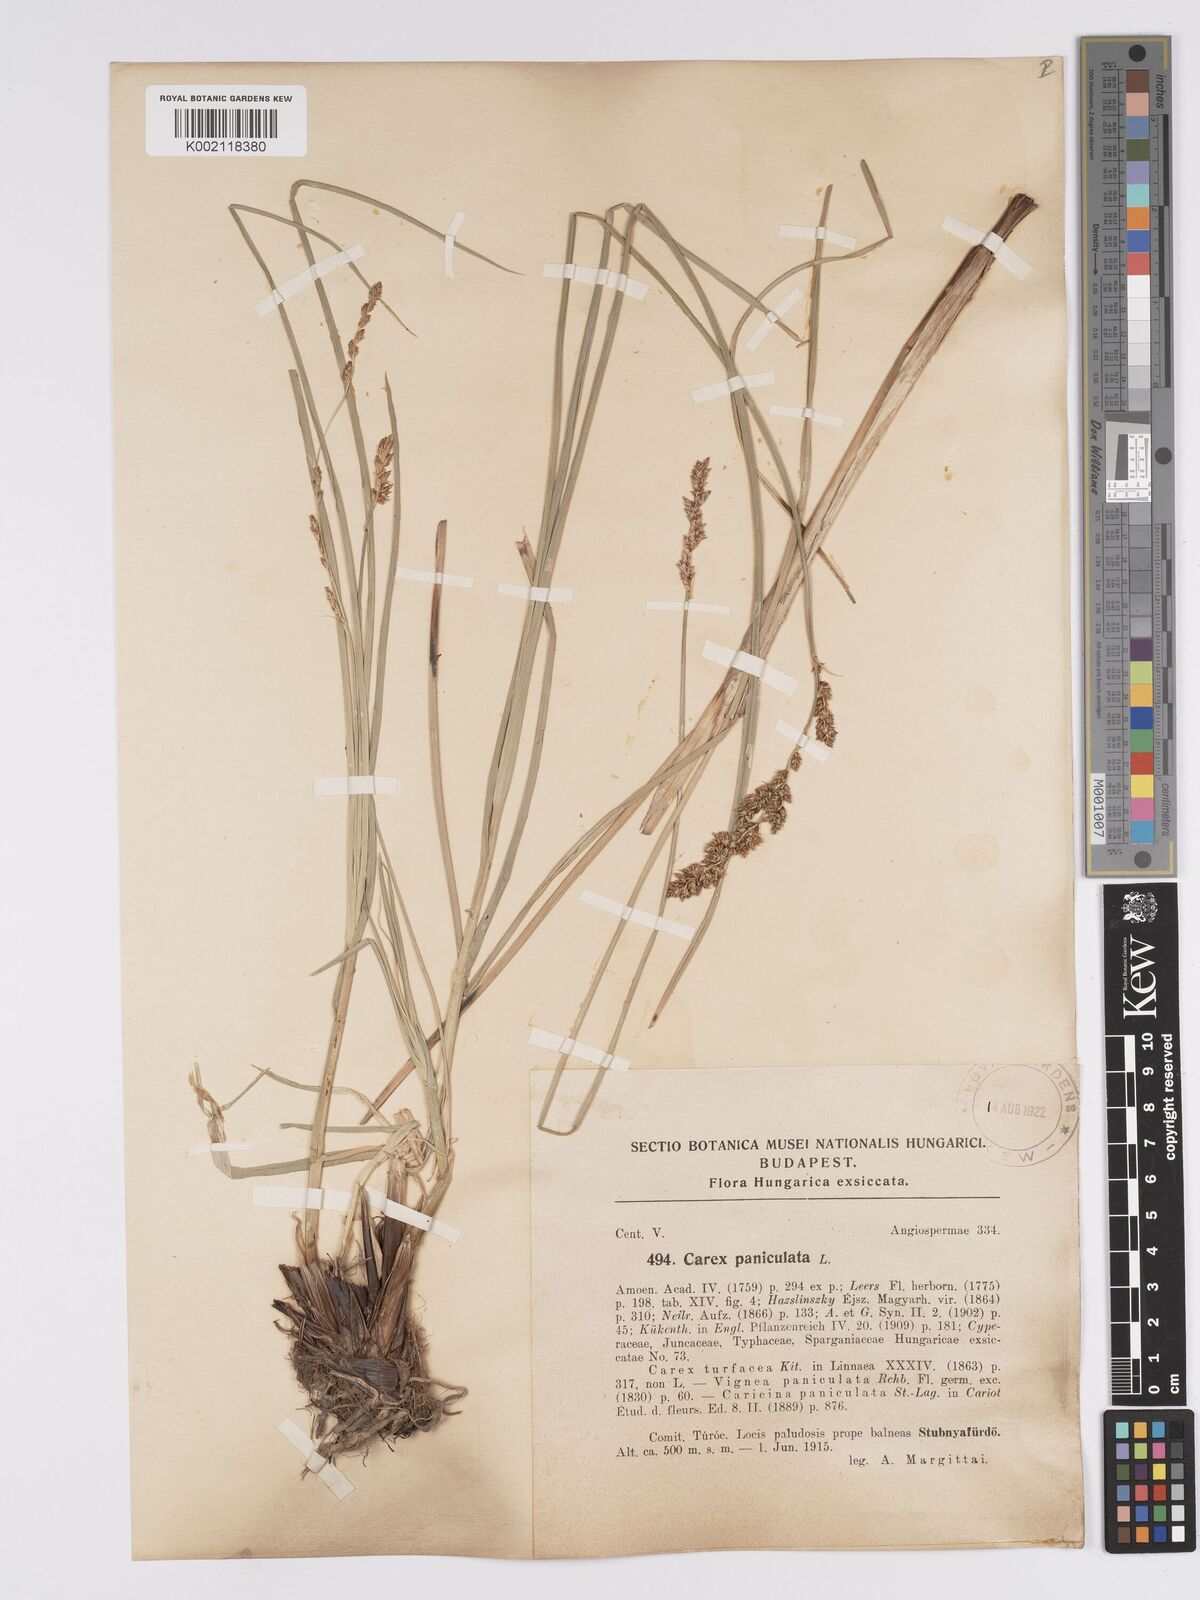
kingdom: Plantae
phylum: Tracheophyta
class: Liliopsida
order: Poales
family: Cyperaceae
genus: Carex
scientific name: Carex paniculata
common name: Greater tussock-sedge
